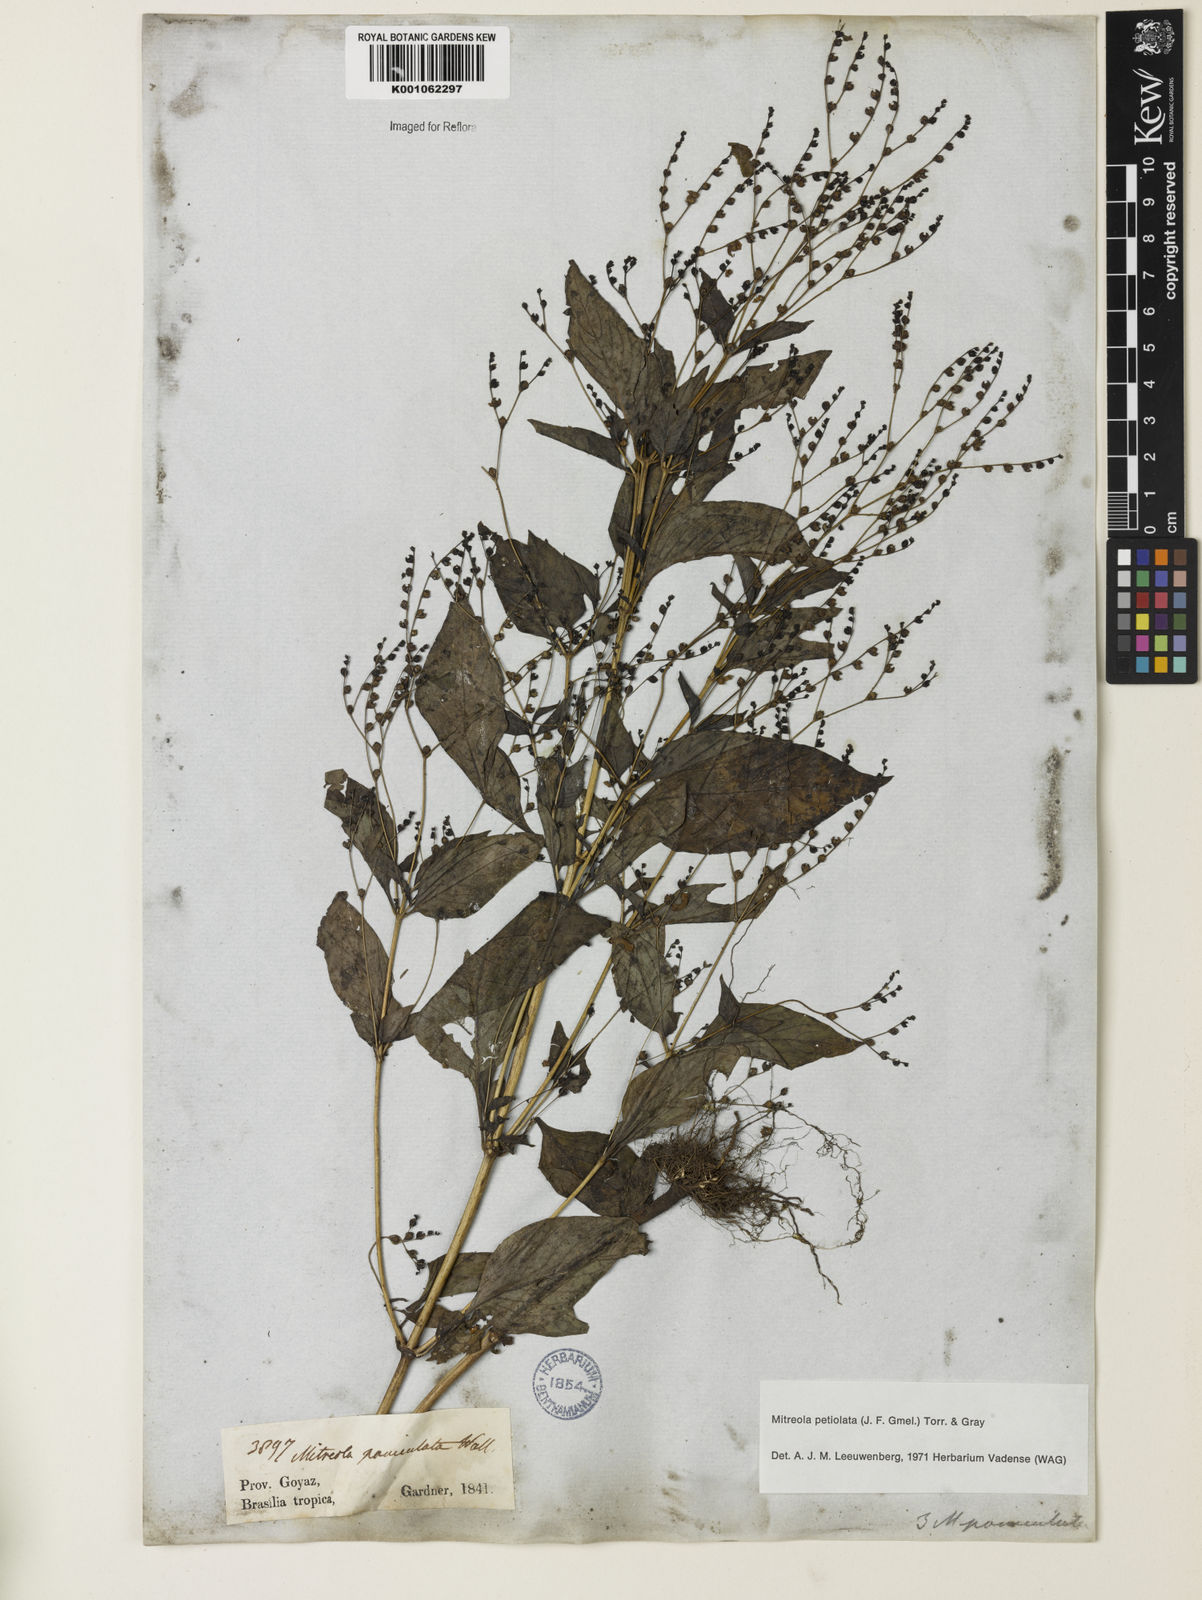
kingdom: Plantae
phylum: Tracheophyta
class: Magnoliopsida
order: Gentianales
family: Loganiaceae
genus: Mitreola
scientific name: Mitreola petiolata
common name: Lax hornpod
